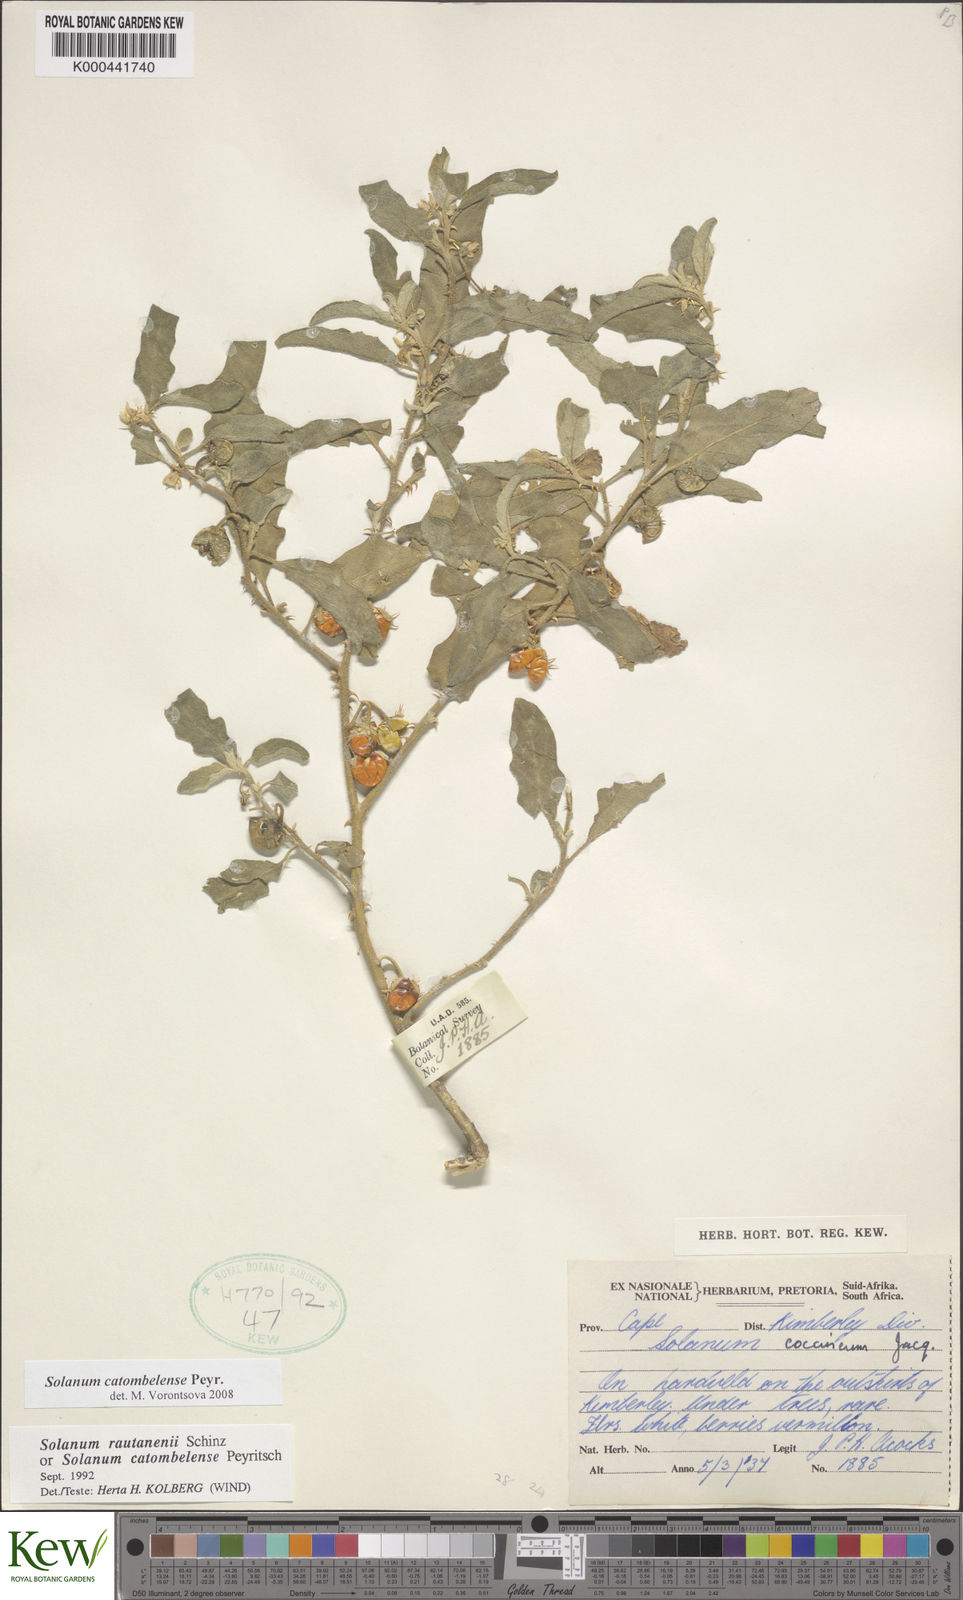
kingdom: Plantae
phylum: Tracheophyta
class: Magnoliopsida
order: Solanales
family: Solanaceae
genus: Solanum
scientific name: Solanum catombelense
